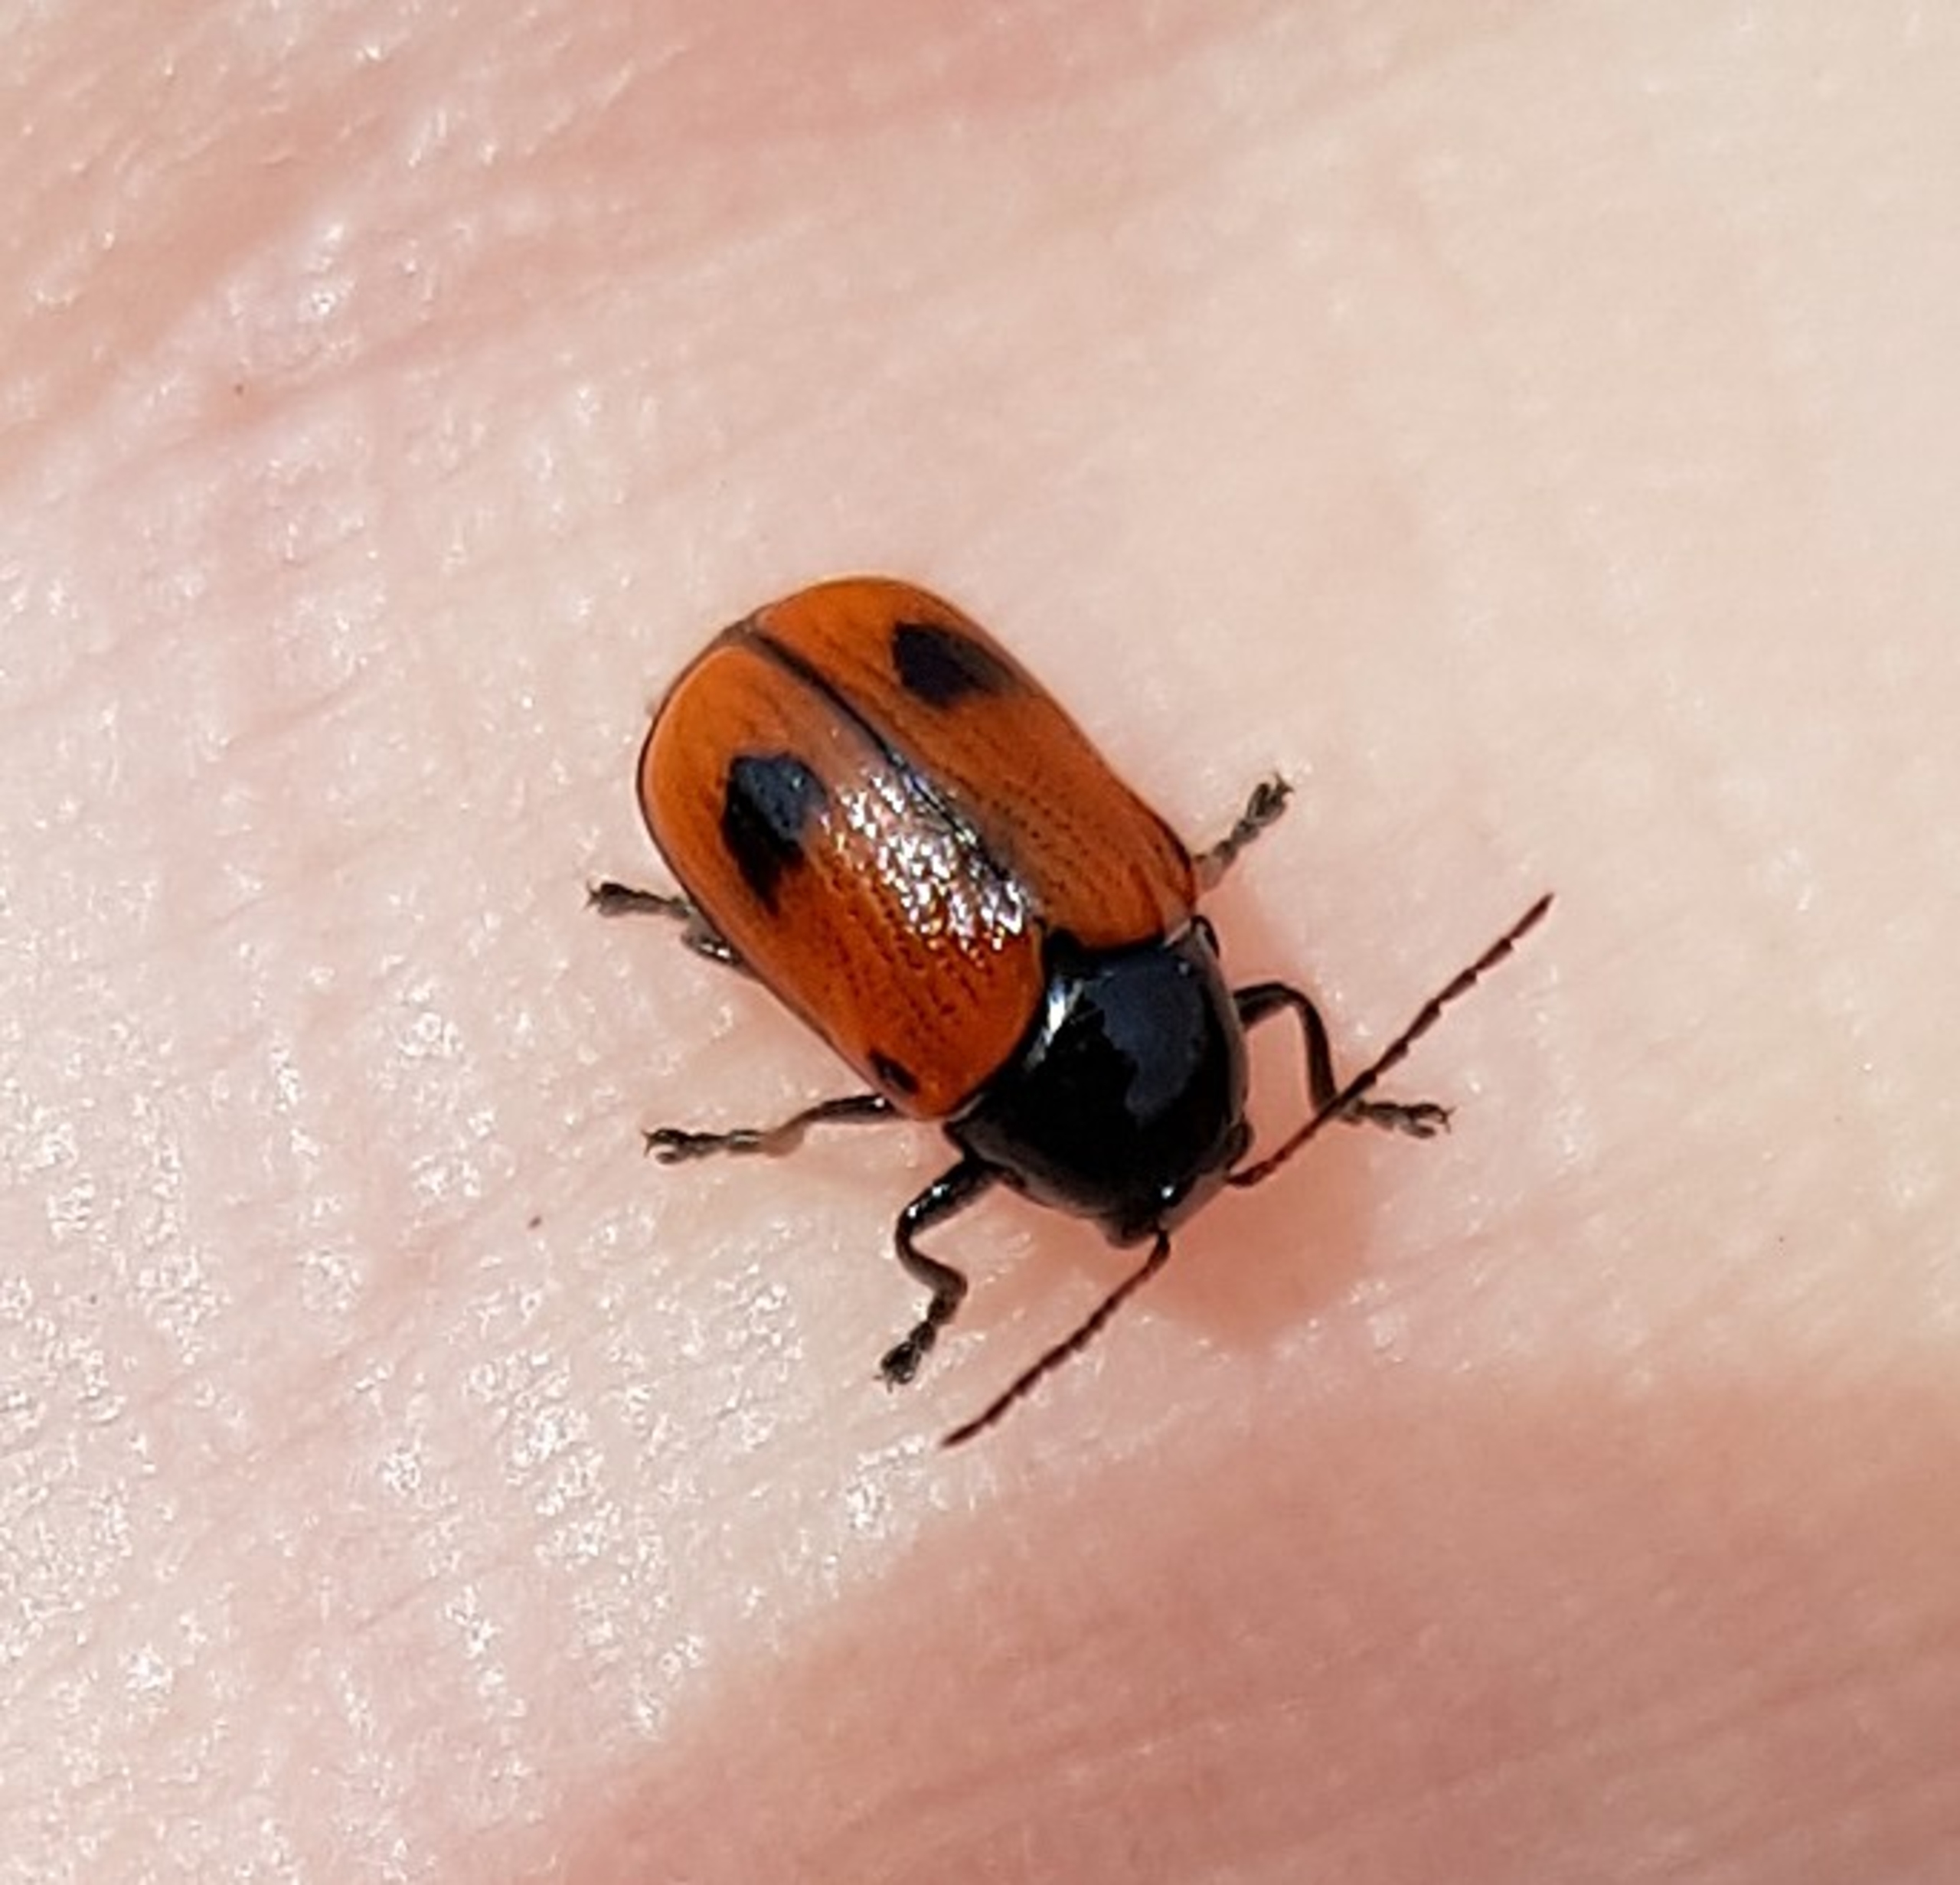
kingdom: Animalia
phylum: Arthropoda
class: Insecta
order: Coleoptera
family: Chrysomelidae
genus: Chiridopsis
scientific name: Chiridopsis bipunctata
